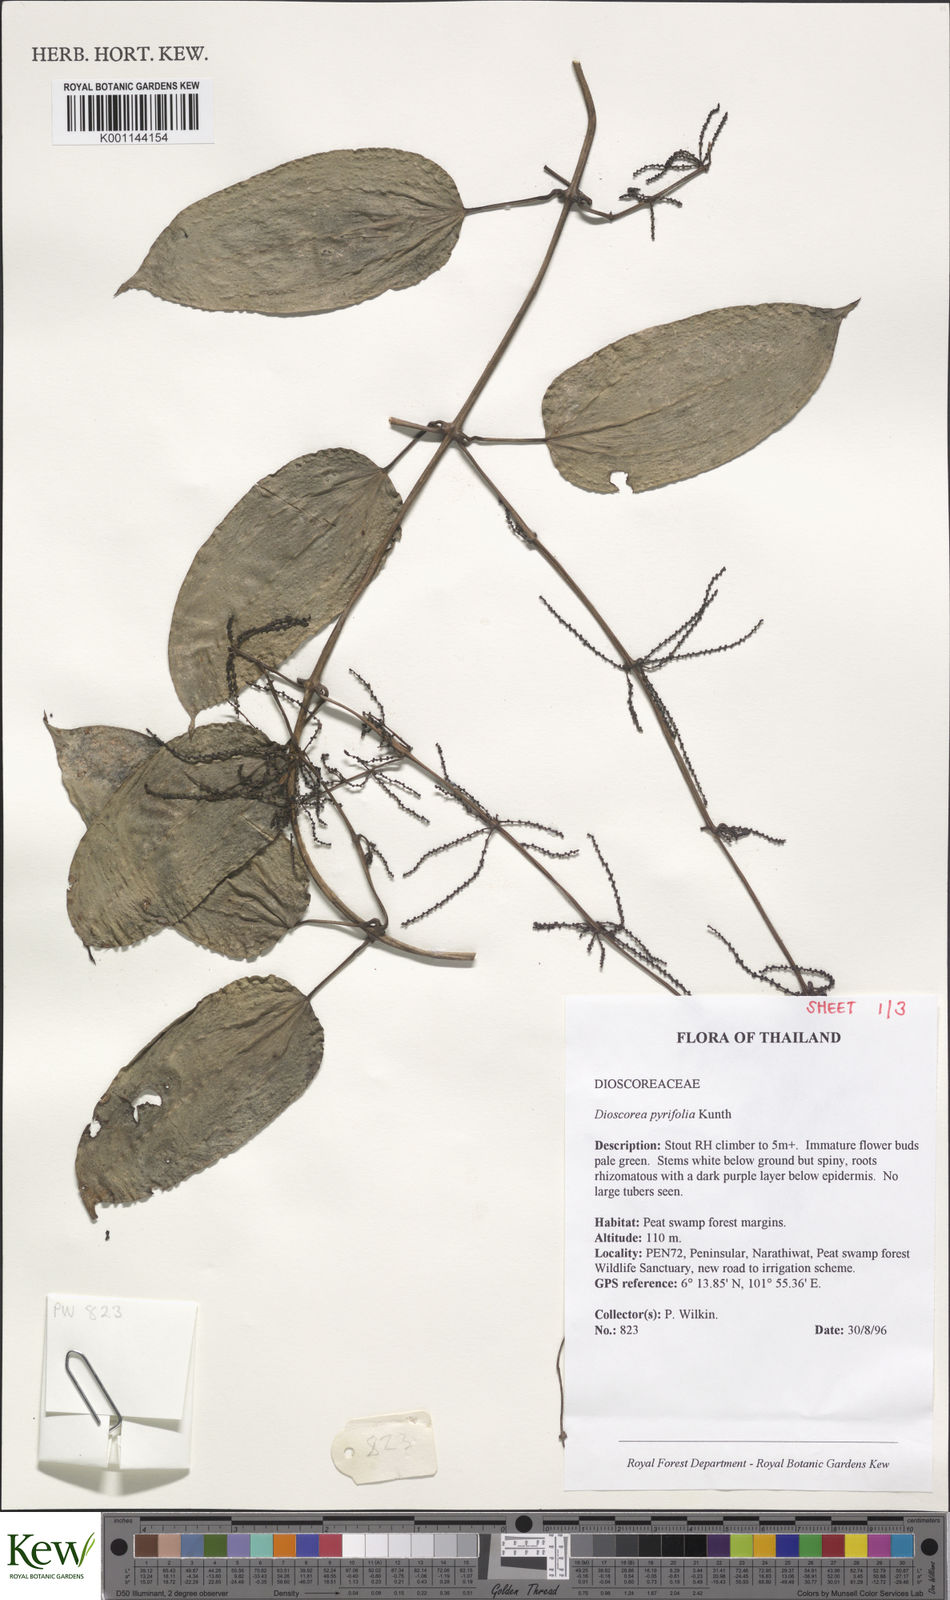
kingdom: Plantae
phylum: Tracheophyta
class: Liliopsida
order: Dioscoreales
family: Dioscoreaceae
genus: Dioscorea
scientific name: Dioscorea pyrifolia
